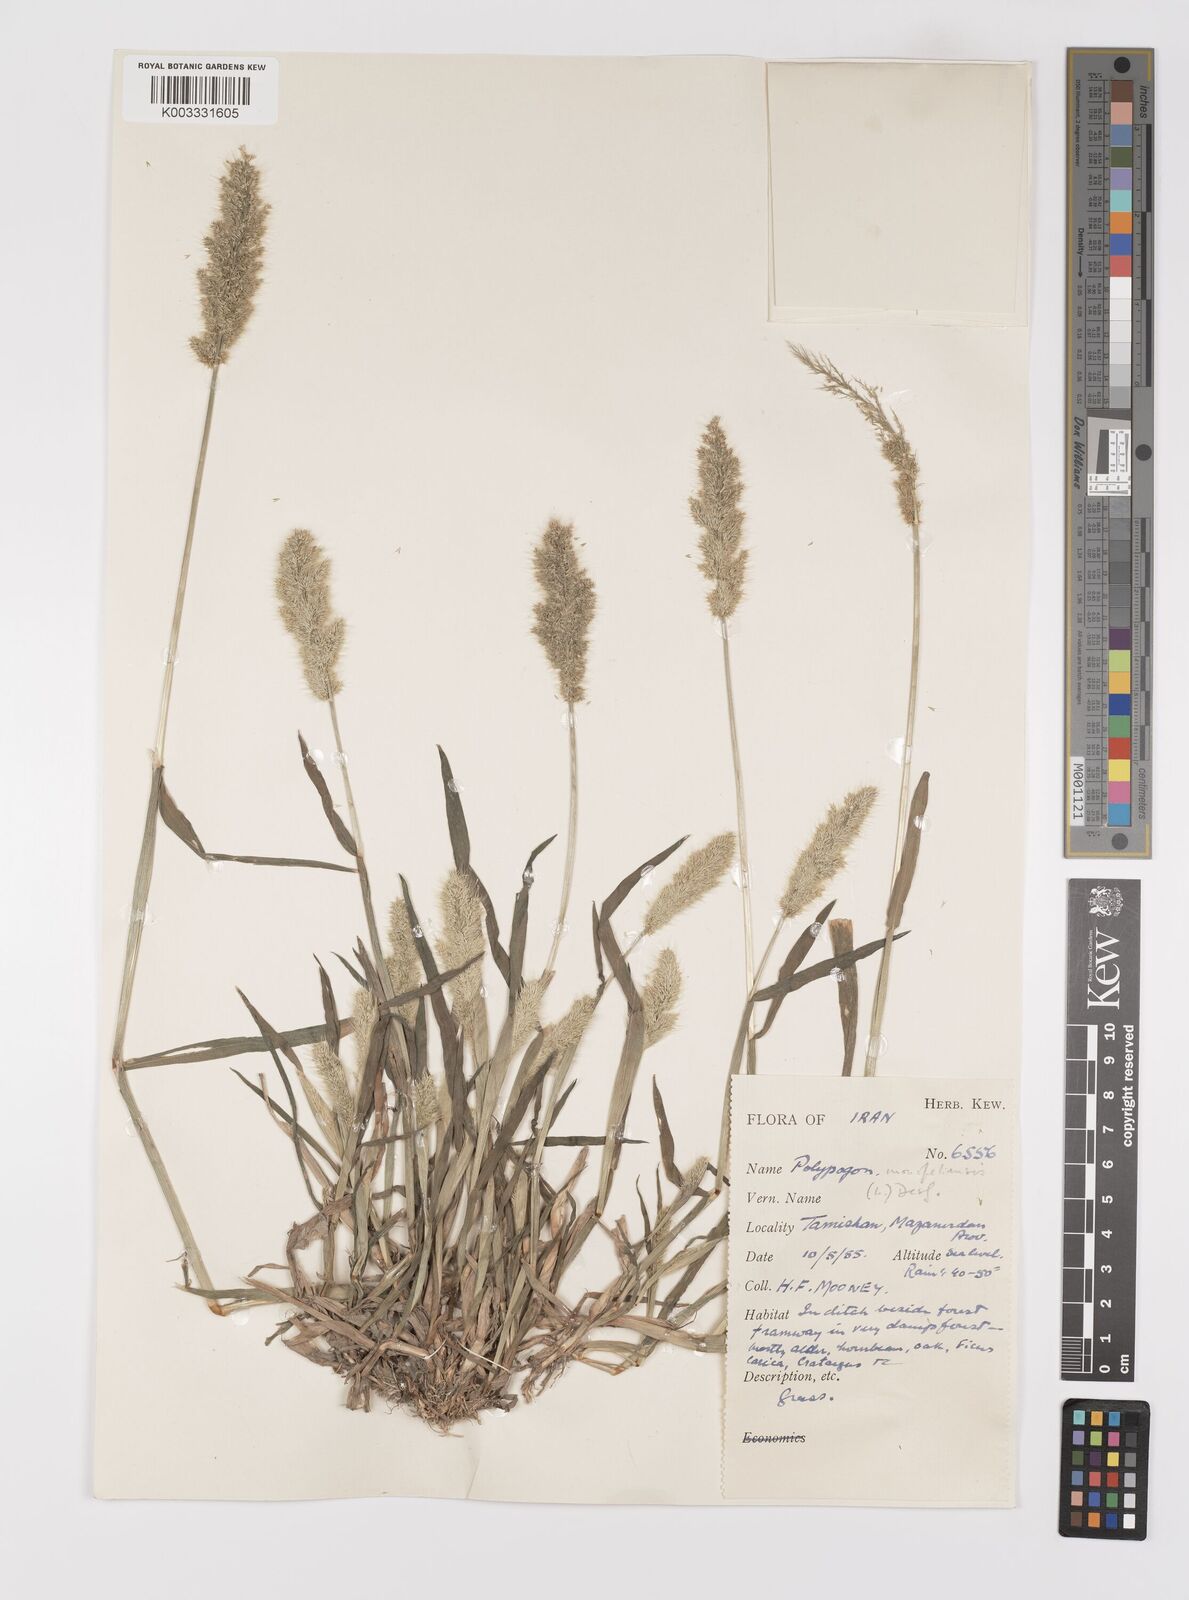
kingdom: Plantae
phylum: Tracheophyta
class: Liliopsida
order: Poales
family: Poaceae
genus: Polypogon
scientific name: Polypogon monspeliensis
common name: Annual rabbitsfoot grass
